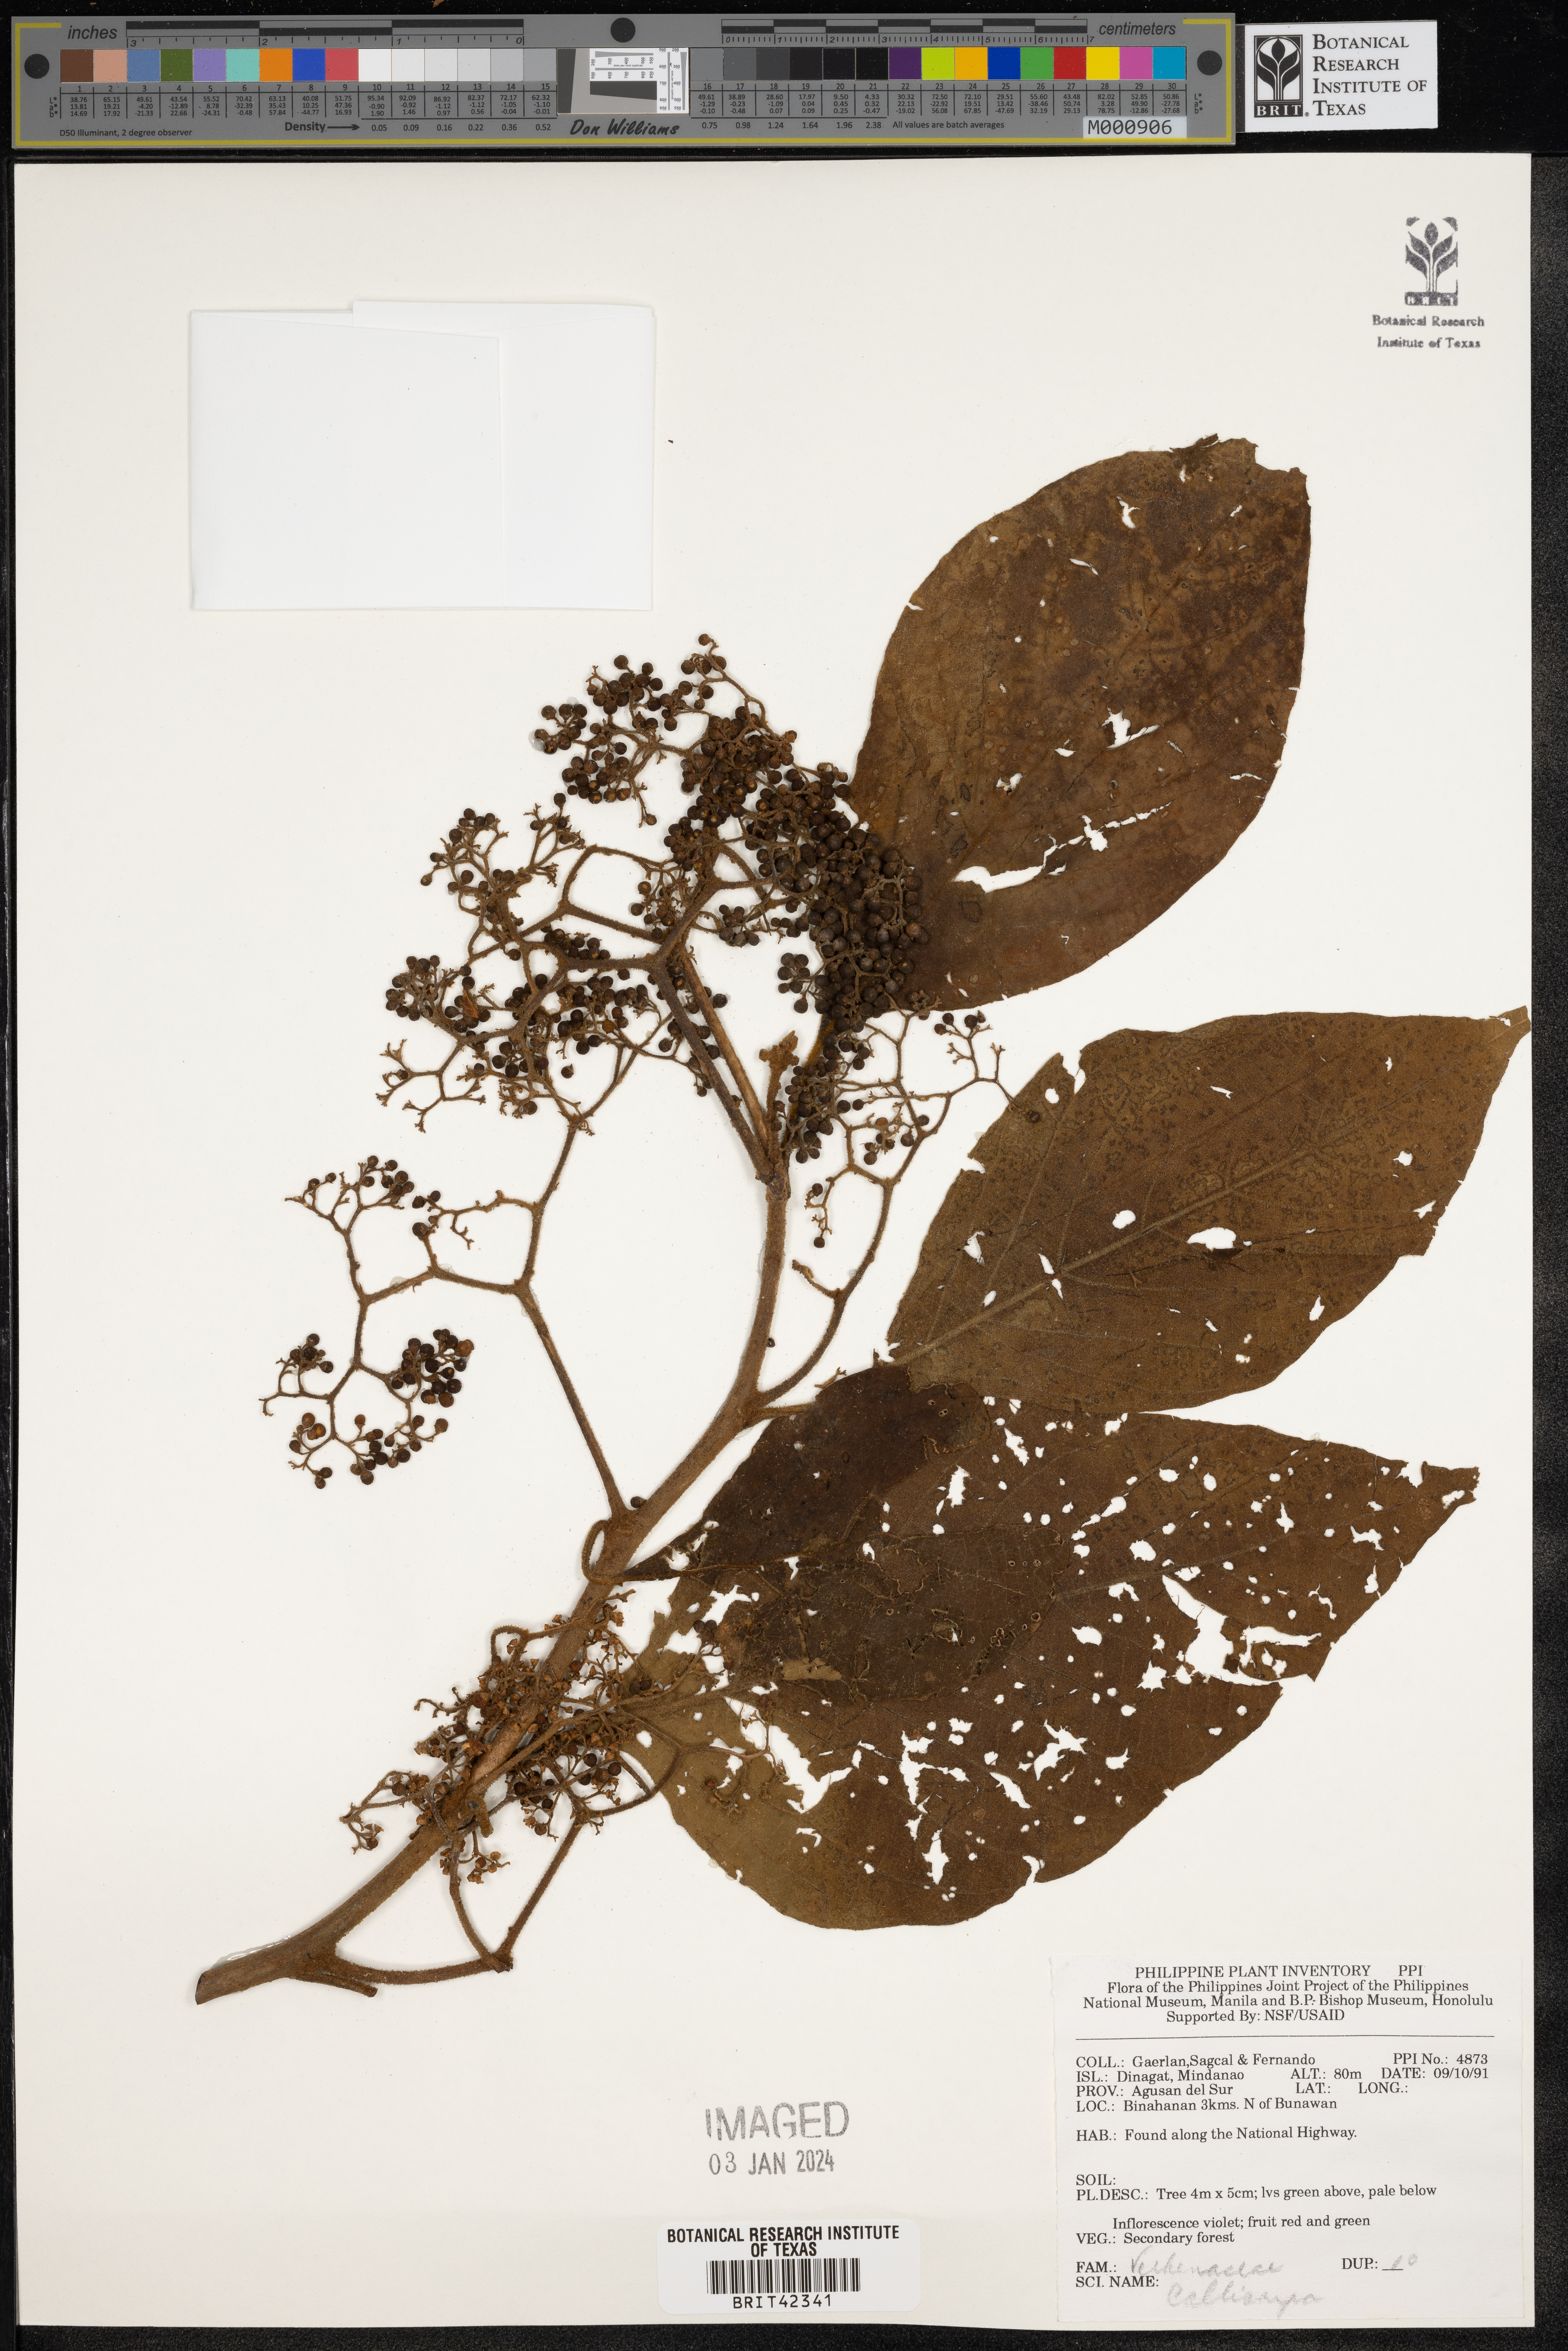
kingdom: Plantae
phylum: Tracheophyta
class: Magnoliopsida
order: Lamiales
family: Lamiaceae
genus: Callicarpa
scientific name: Callicarpa
